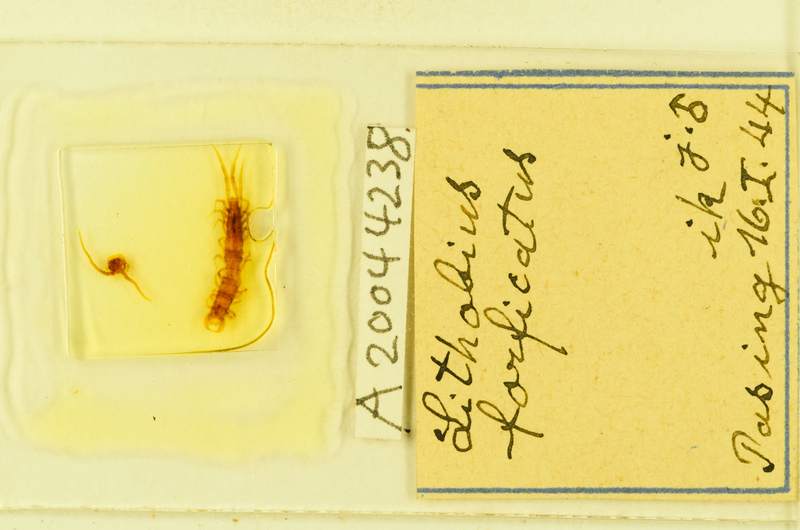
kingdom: Animalia
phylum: Arthropoda
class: Chilopoda
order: Lithobiomorpha
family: Lithobiidae
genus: Lithobius
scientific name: Lithobius forficatus
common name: Centipede
